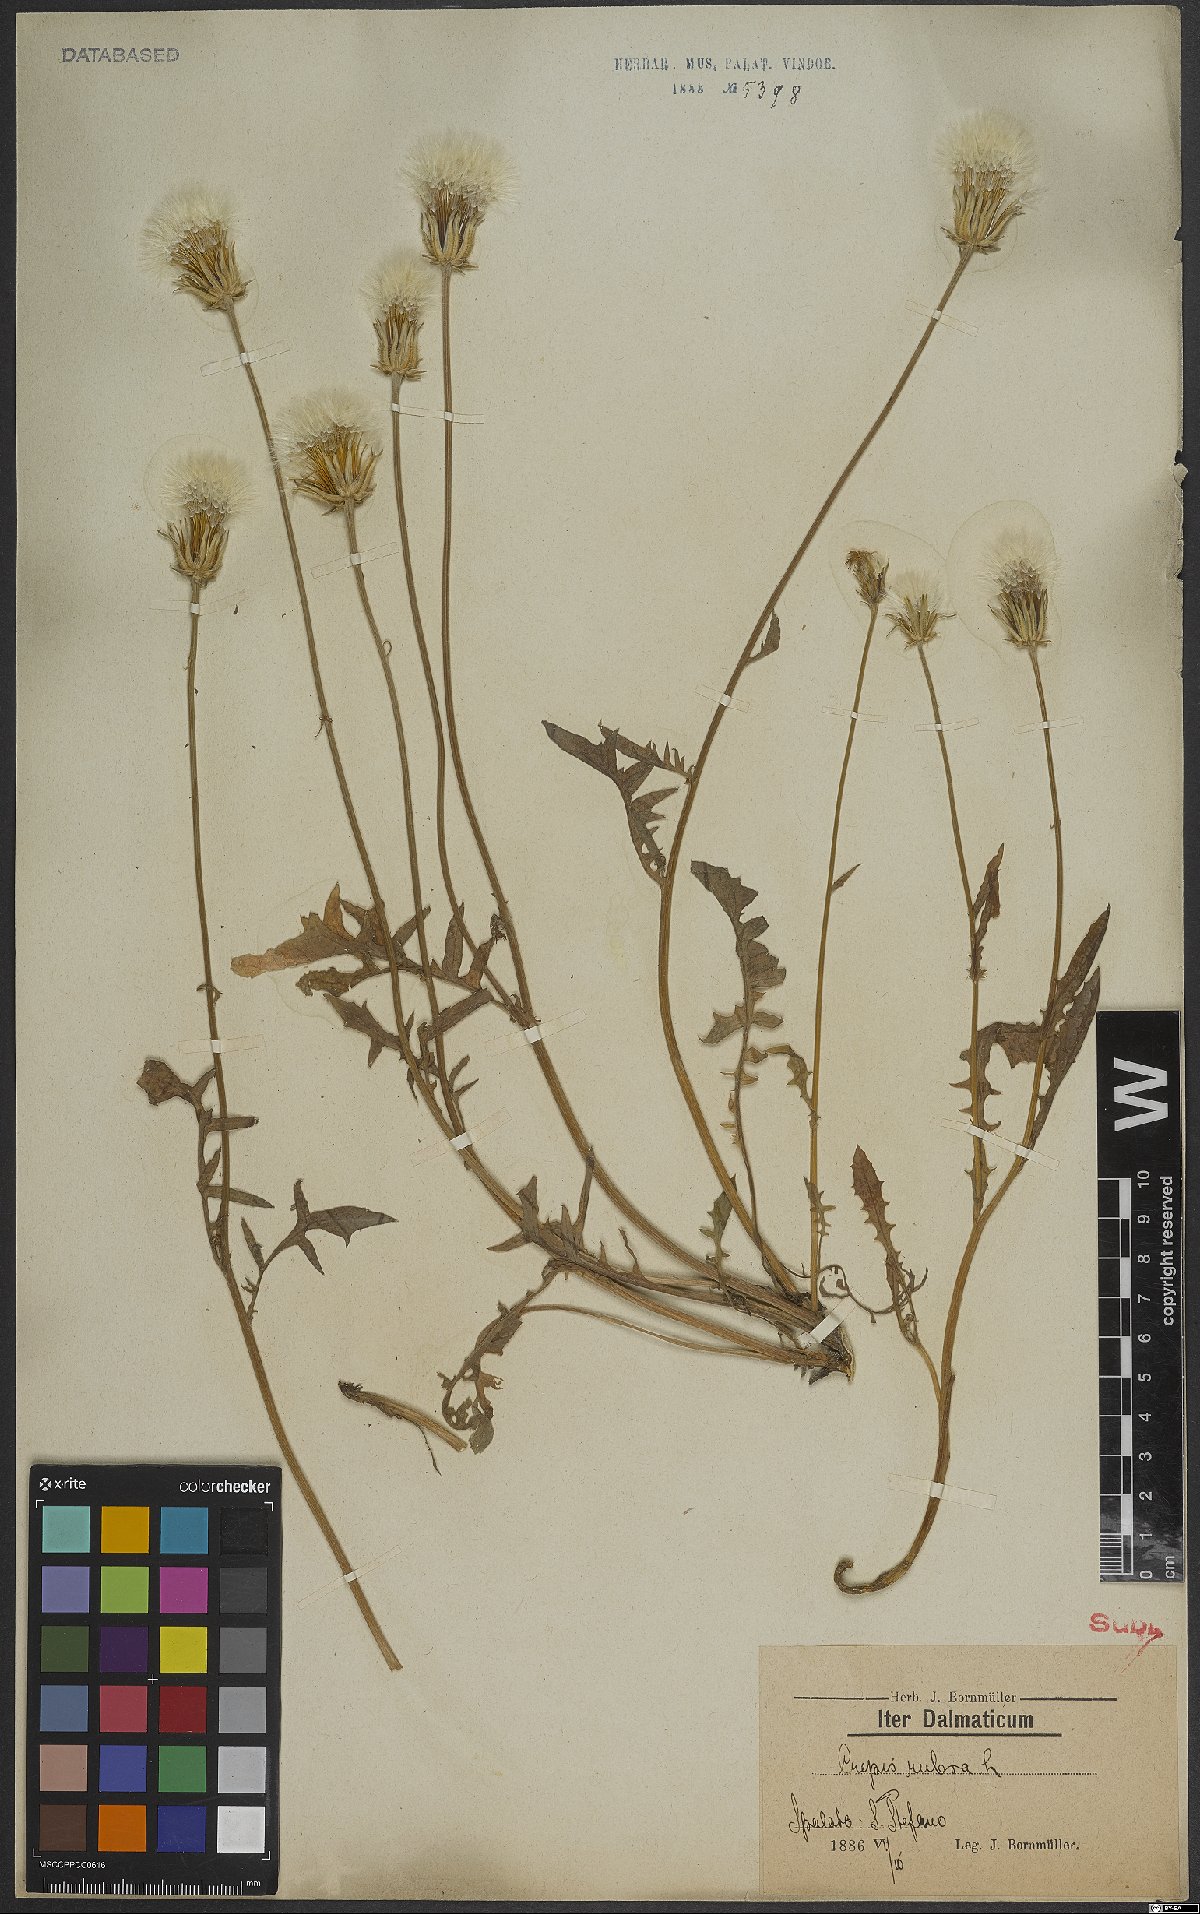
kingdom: Plantae
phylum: Tracheophyta
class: Magnoliopsida
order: Asterales
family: Asteraceae
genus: Crepis
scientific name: Crepis rubra
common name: Pink hawk's-beard
